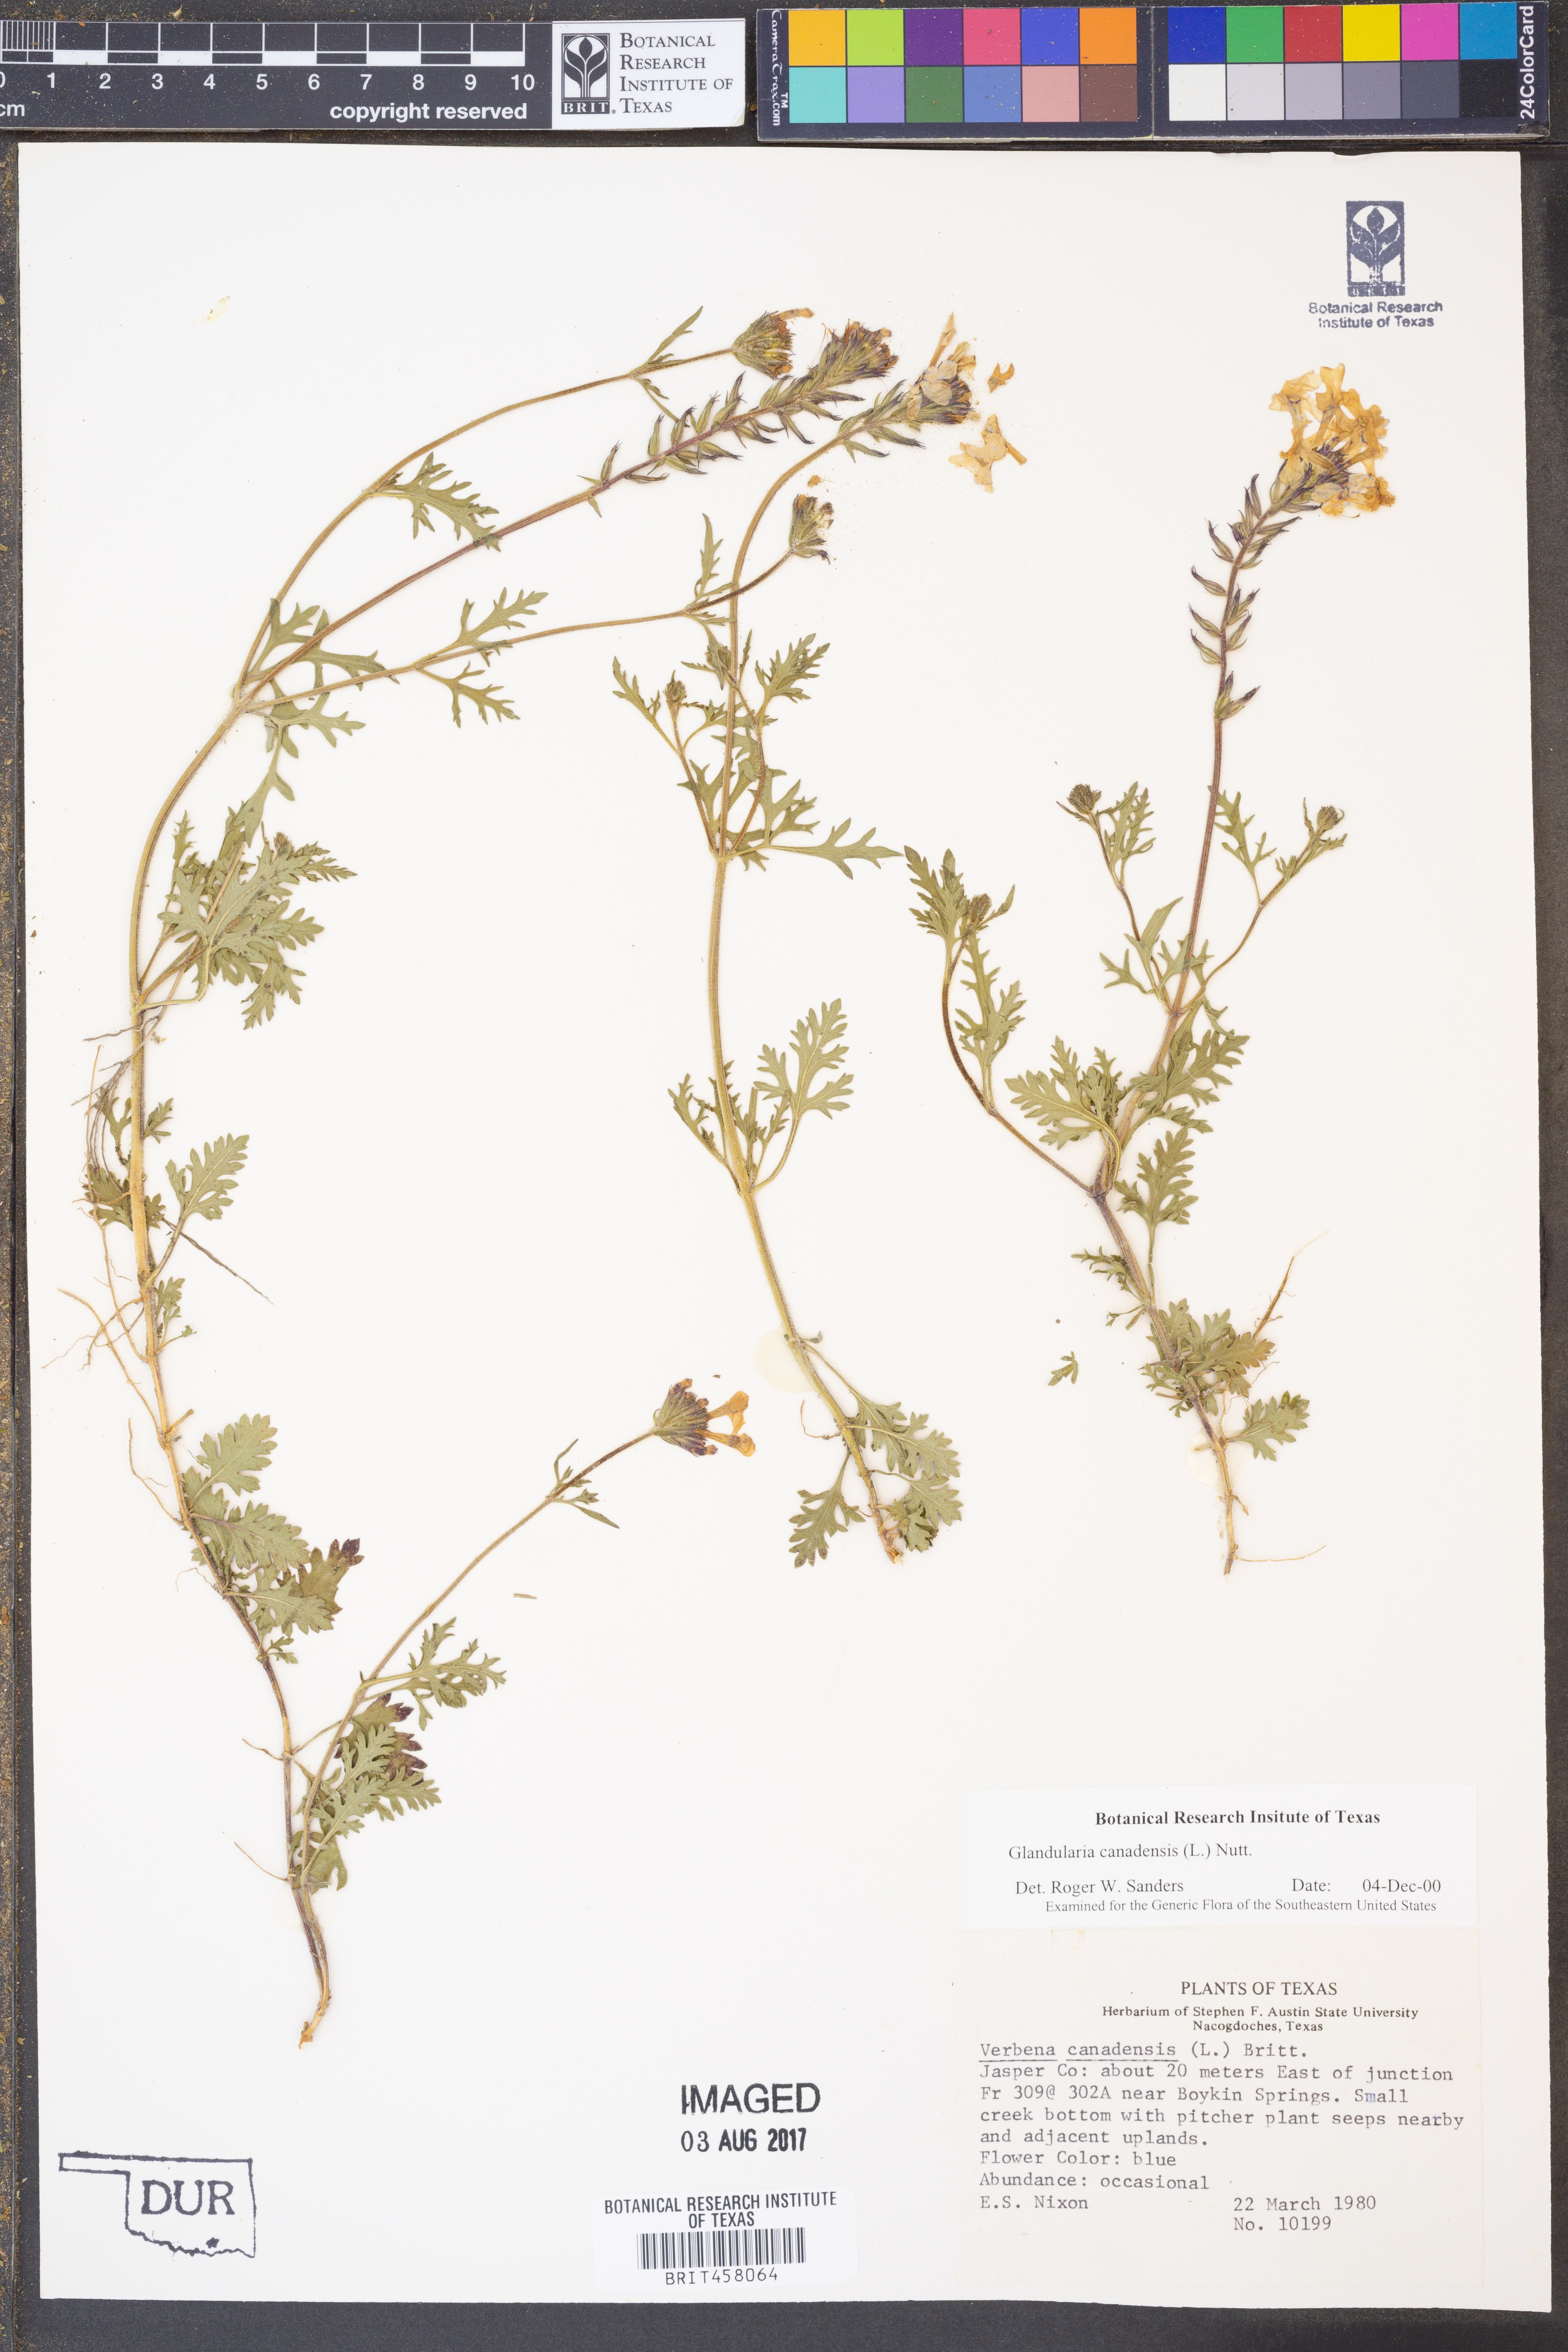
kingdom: Plantae
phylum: Tracheophyta
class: Magnoliopsida
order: Lamiales
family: Verbenaceae
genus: Verbena
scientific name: Verbena canadensis
